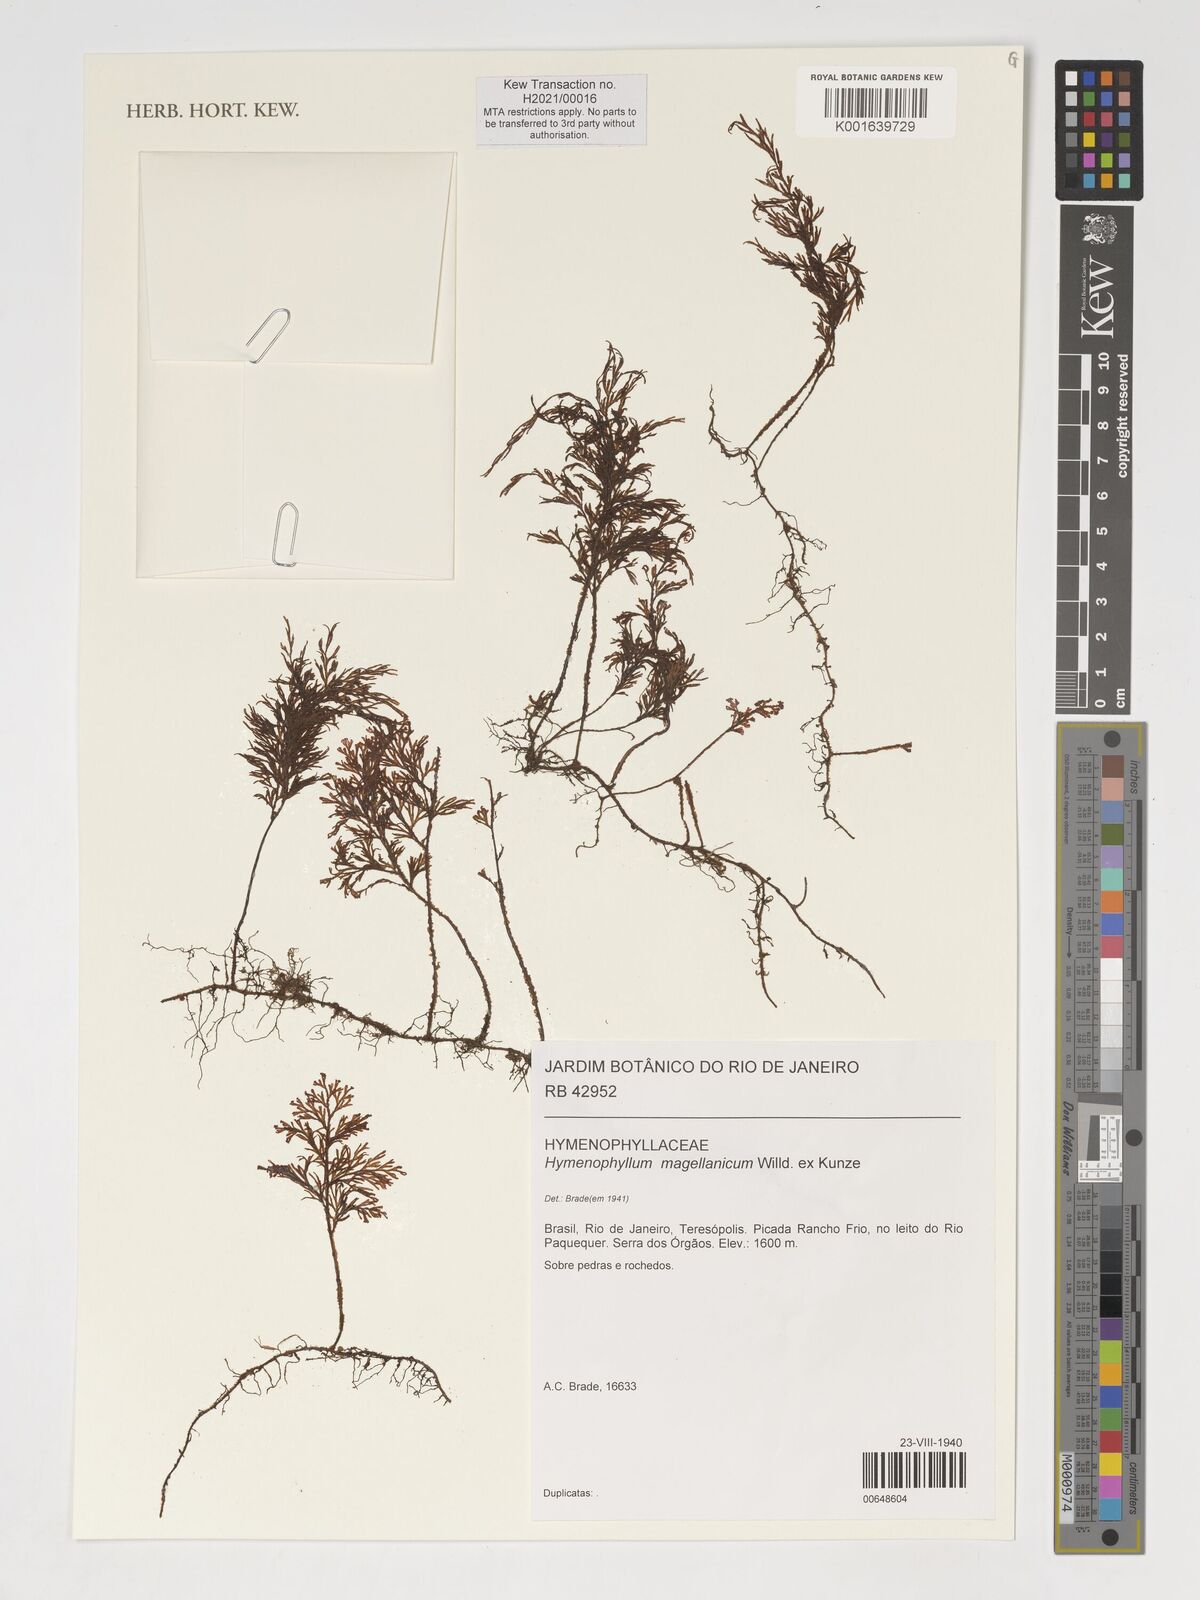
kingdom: Plantae
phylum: Tracheophyta
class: Polypodiopsida
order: Hymenophyllales
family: Hymenophyllaceae
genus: Hymenophyllum
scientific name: Hymenophyllum seselifolium
